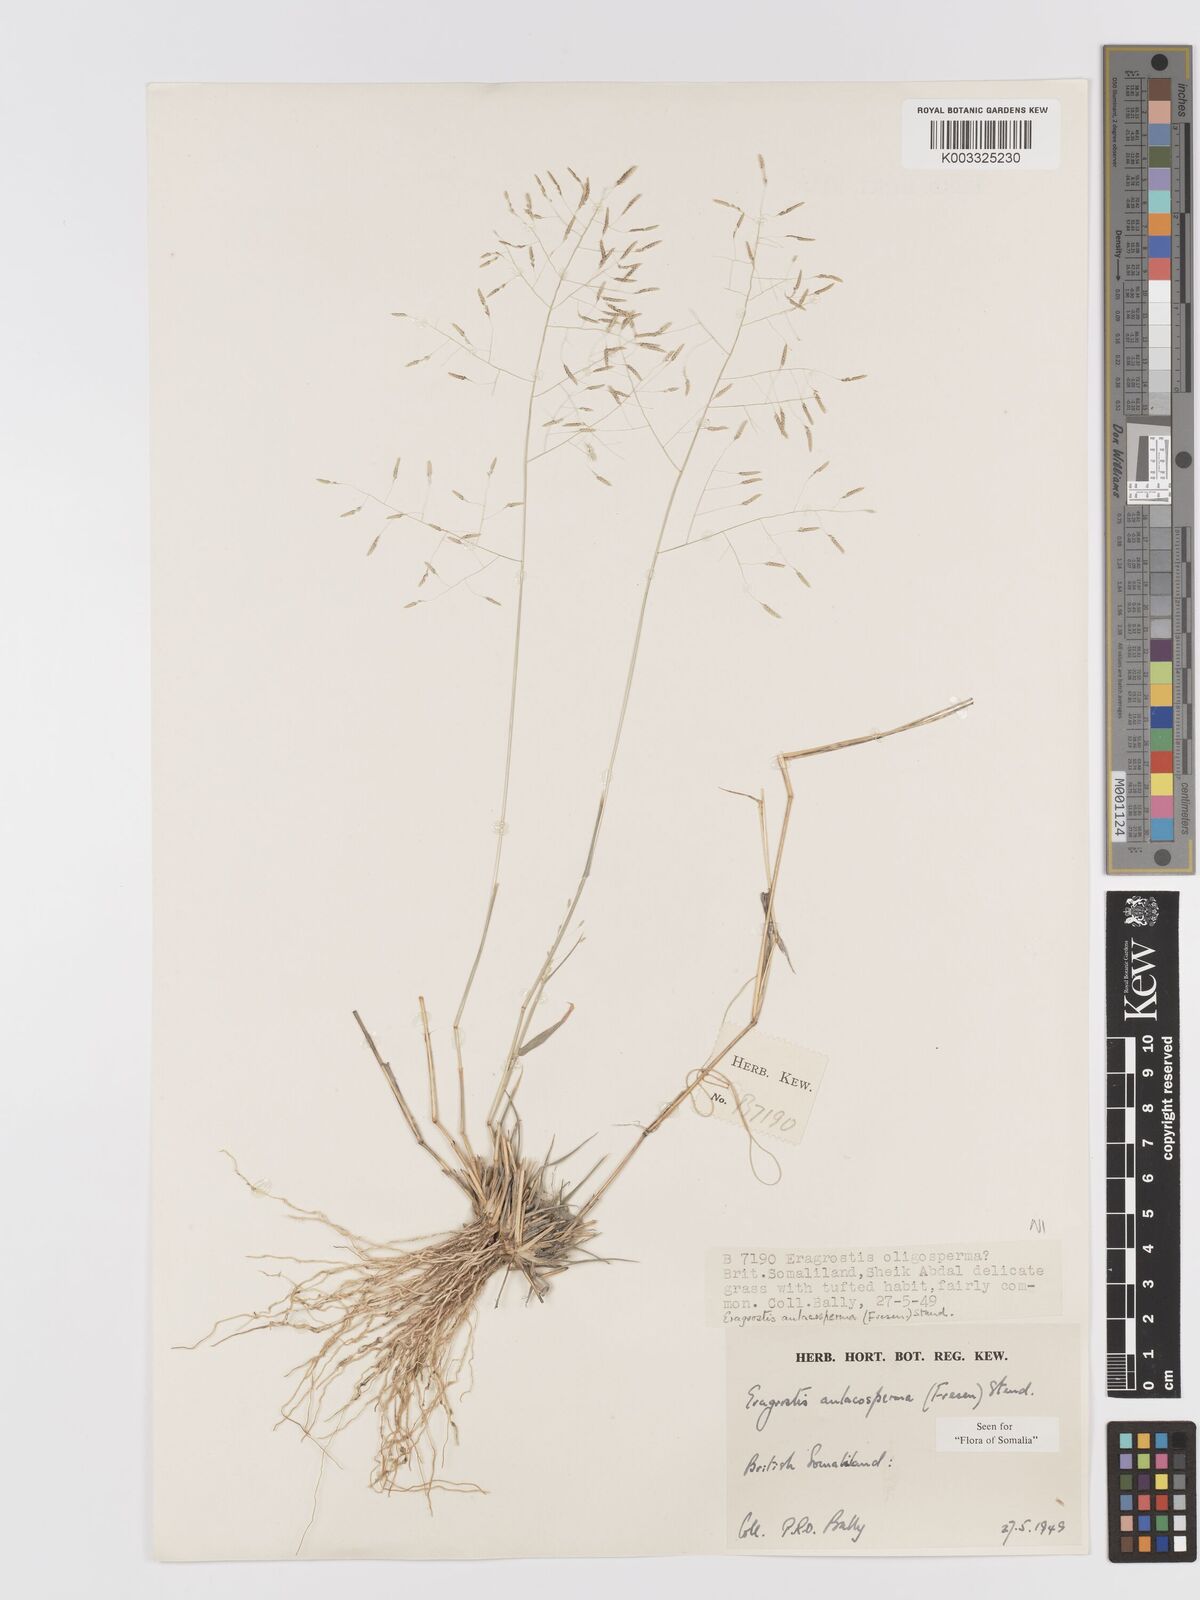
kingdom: Plantae
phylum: Tracheophyta
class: Liliopsida
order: Poales
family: Poaceae
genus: Eragrostis
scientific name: Eragrostis papposa
